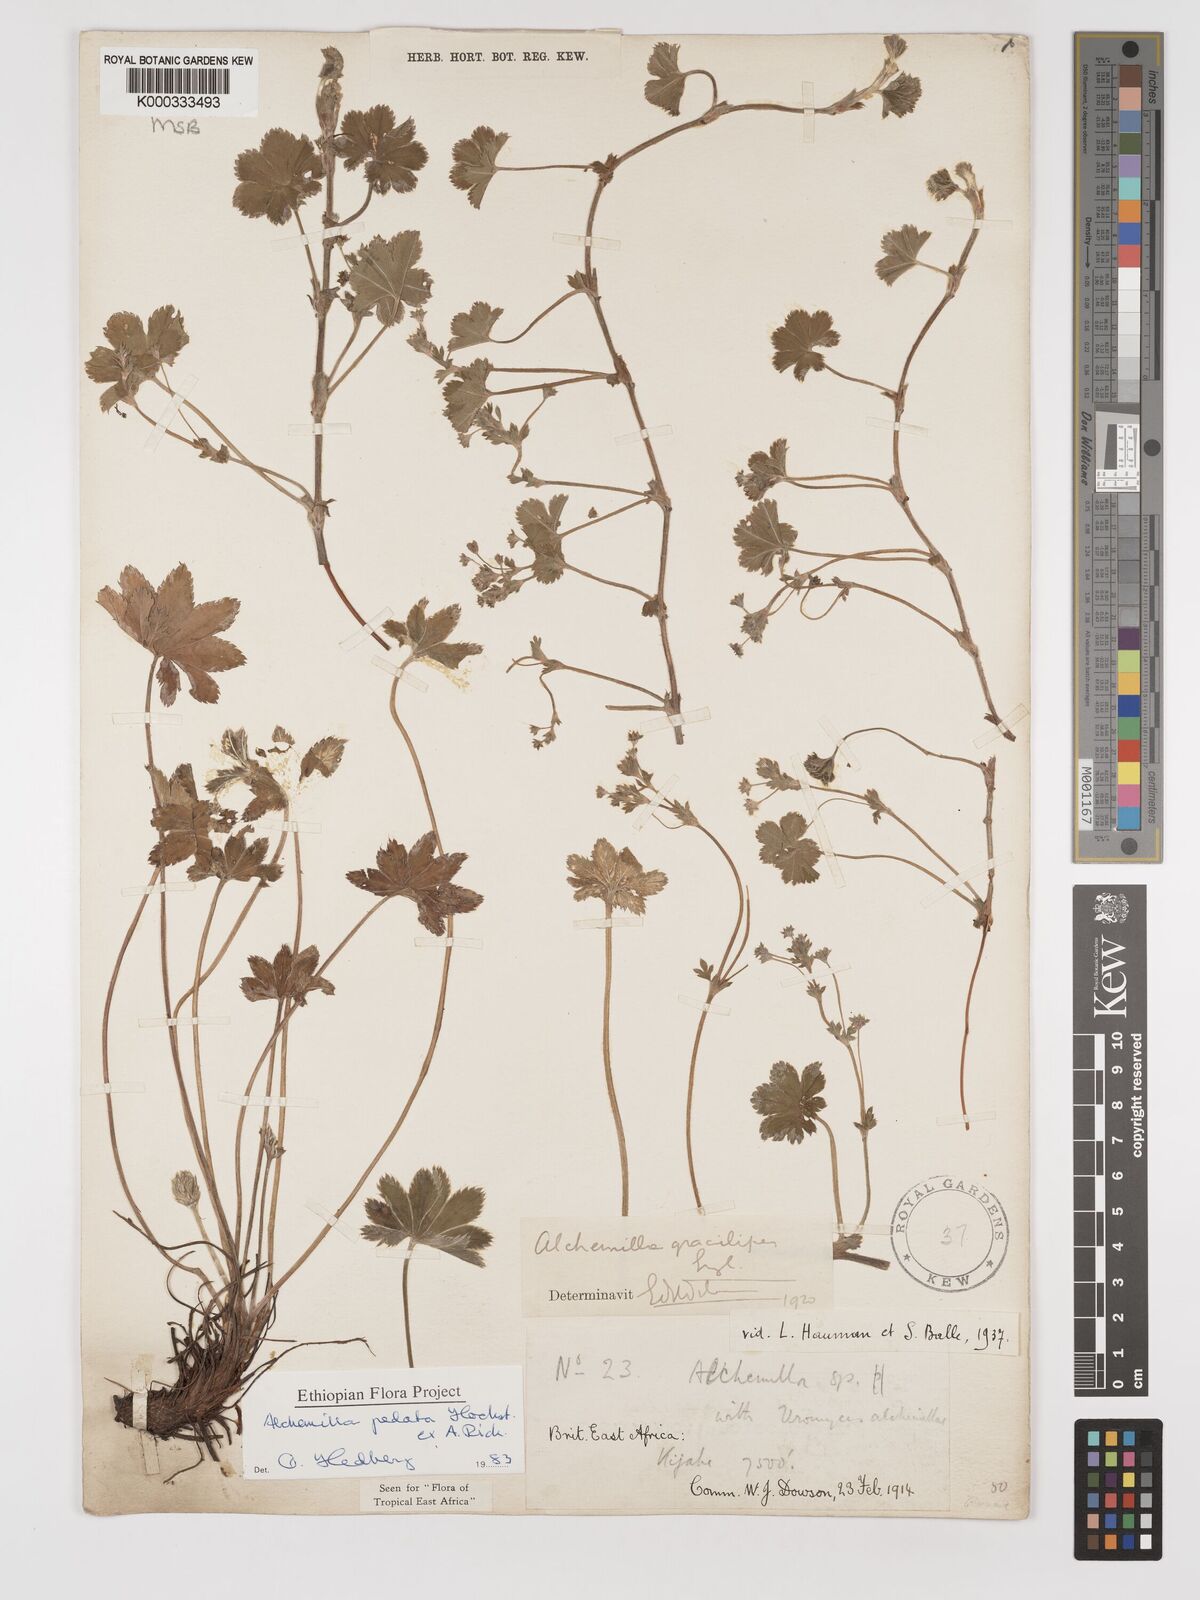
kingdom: Plantae
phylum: Tracheophyta
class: Magnoliopsida
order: Rosales
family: Rosaceae
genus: Alchemilla
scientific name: Alchemilla pedata
